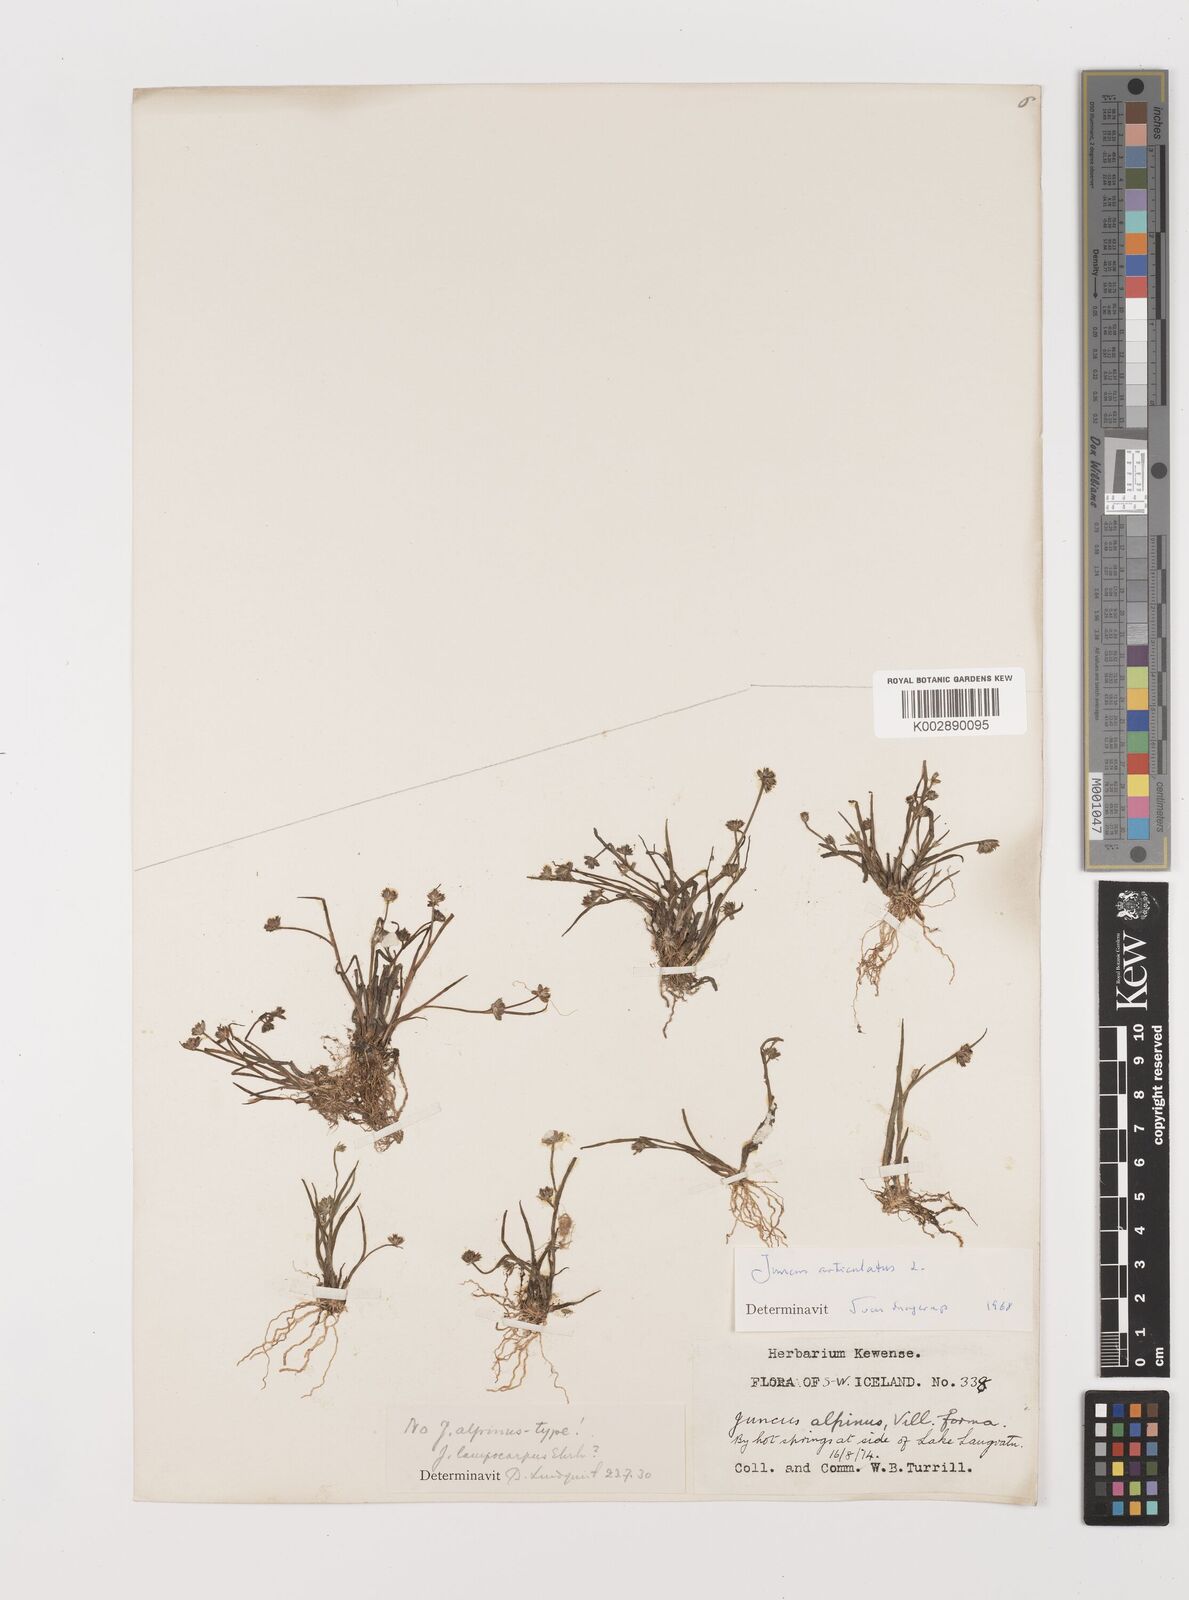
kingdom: Plantae
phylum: Tracheophyta
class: Liliopsida
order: Poales
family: Juncaceae
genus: Juncus
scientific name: Juncus articulatus
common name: Jointed rush
